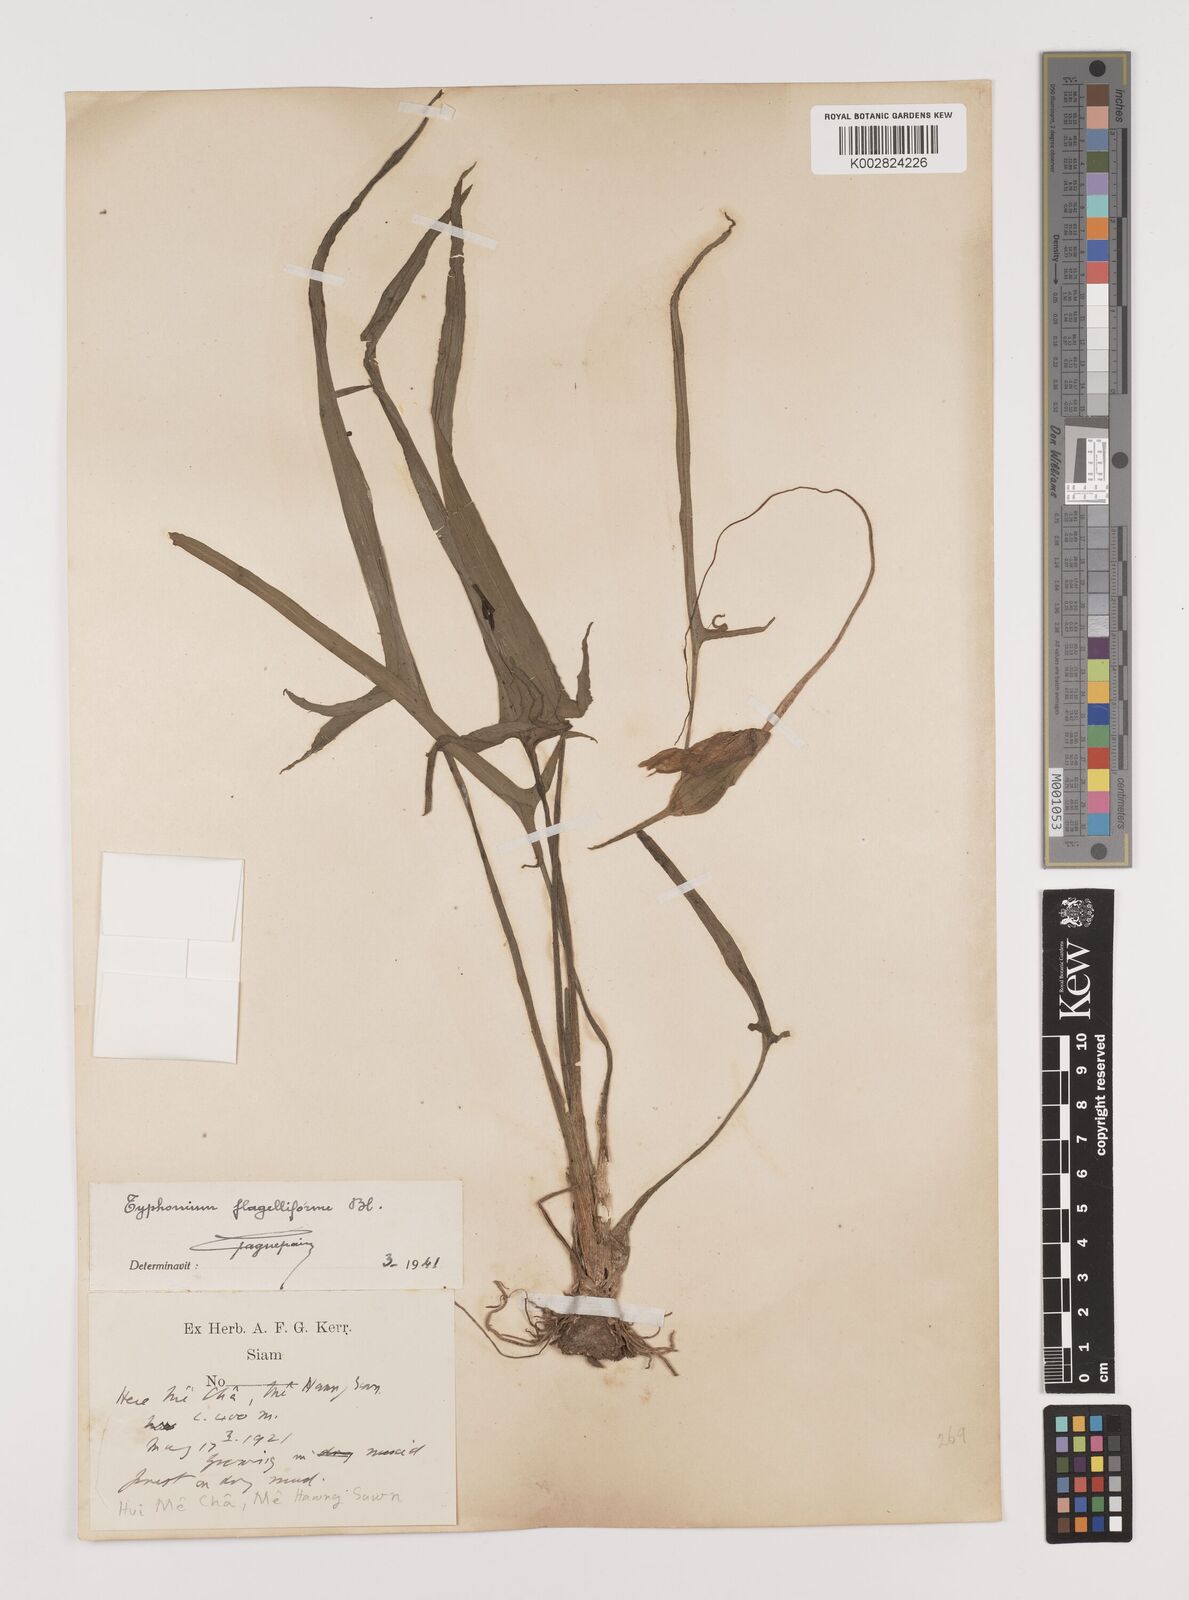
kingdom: Plantae
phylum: Tracheophyta
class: Liliopsida
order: Alismatales
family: Araceae
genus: Typhonium
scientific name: Typhonium flagelliforme
